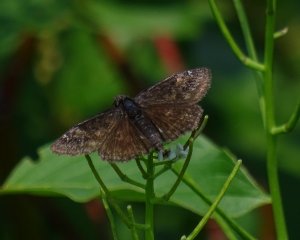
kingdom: Animalia
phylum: Arthropoda
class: Insecta
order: Lepidoptera
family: Hesperiidae
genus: Gesta
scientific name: Gesta
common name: Wild Indigo Duskywing
